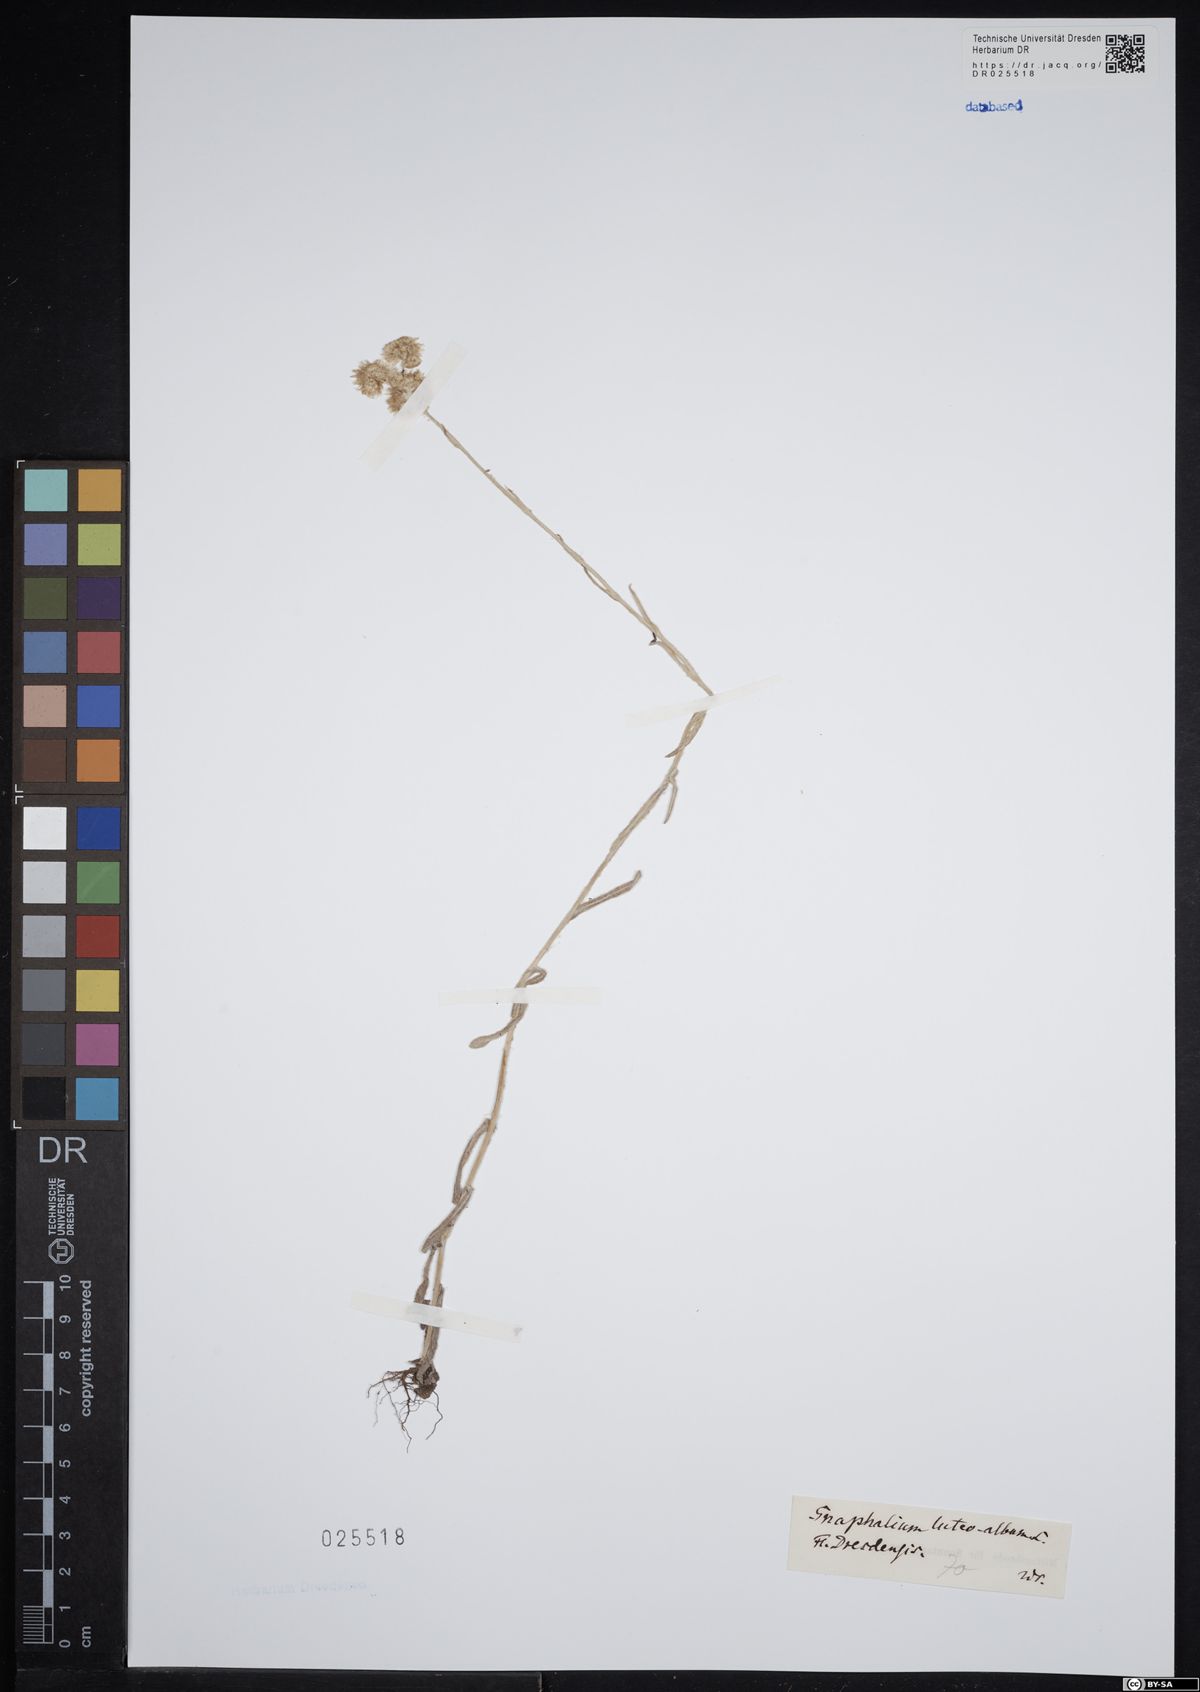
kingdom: Plantae
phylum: Tracheophyta
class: Magnoliopsida
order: Asterales
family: Asteraceae
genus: Helichrysum
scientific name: Helichrysum luteoalbum
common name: Daisy
